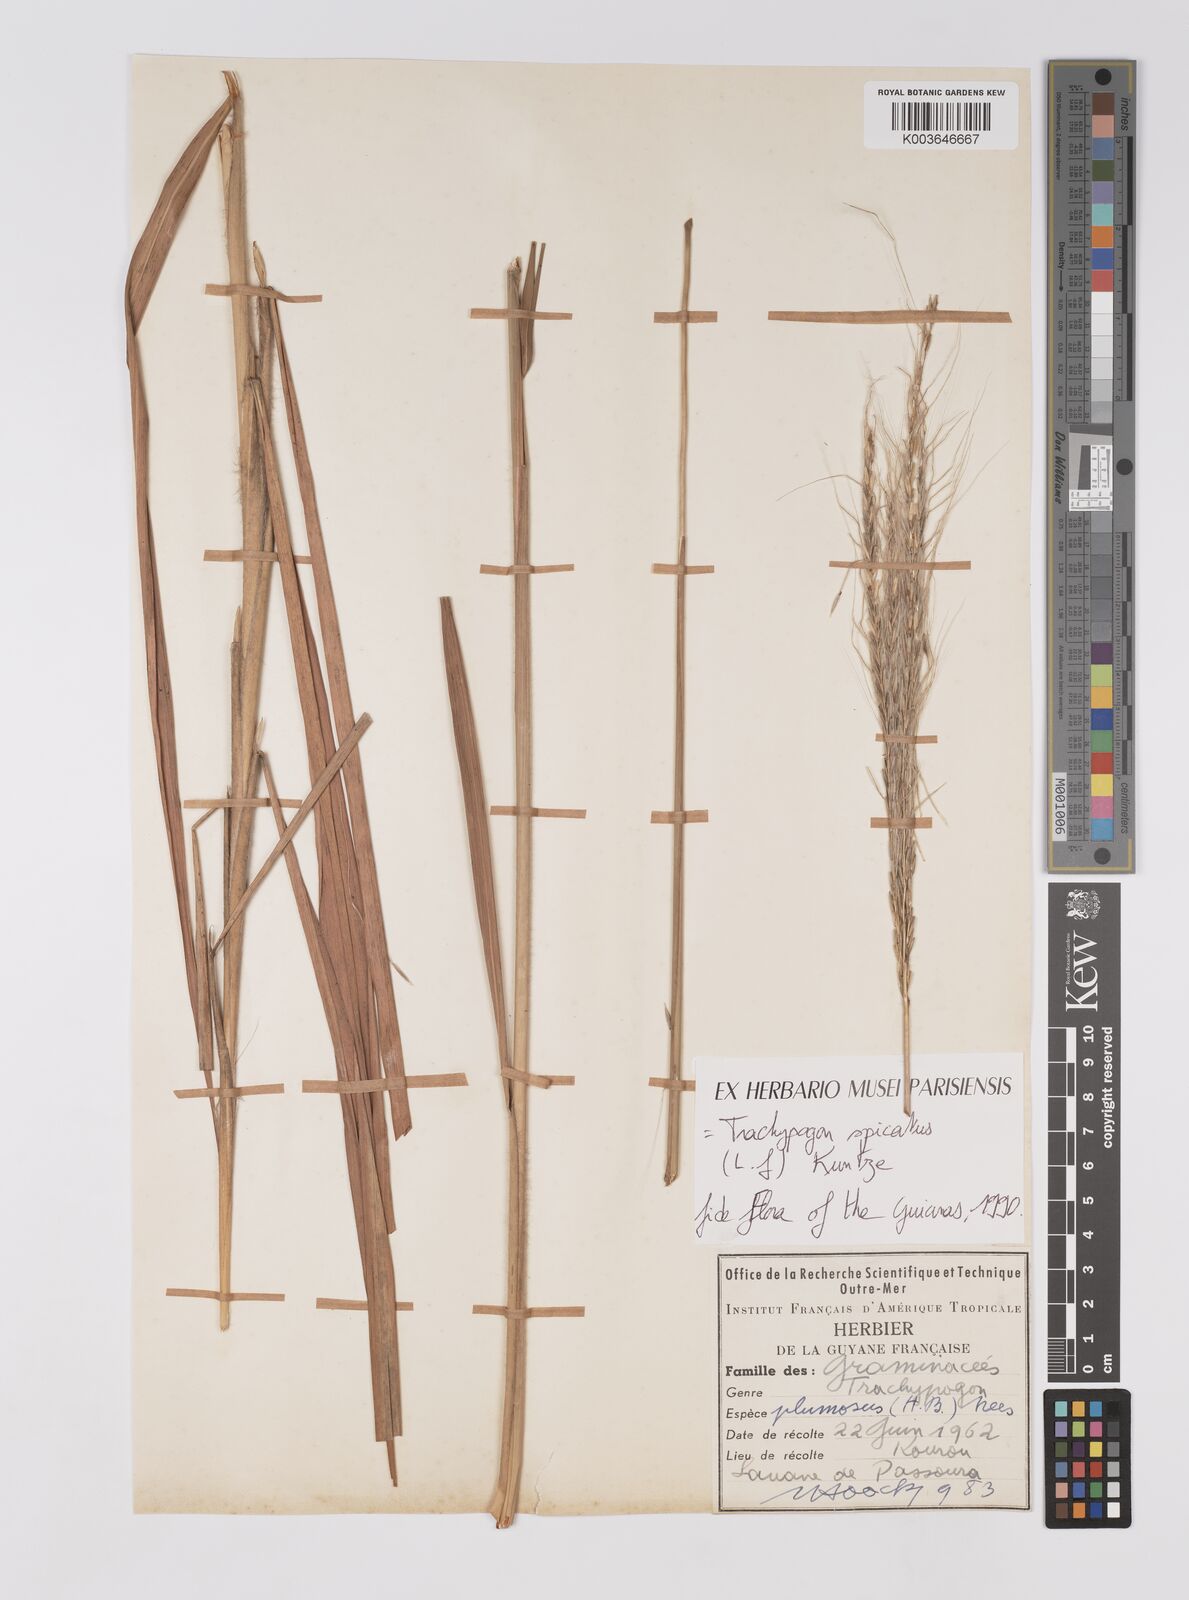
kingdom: Plantae
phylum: Tracheophyta
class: Liliopsida
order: Poales
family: Poaceae
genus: Trachypogon
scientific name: Trachypogon spicatus
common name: Crinkle-awn
